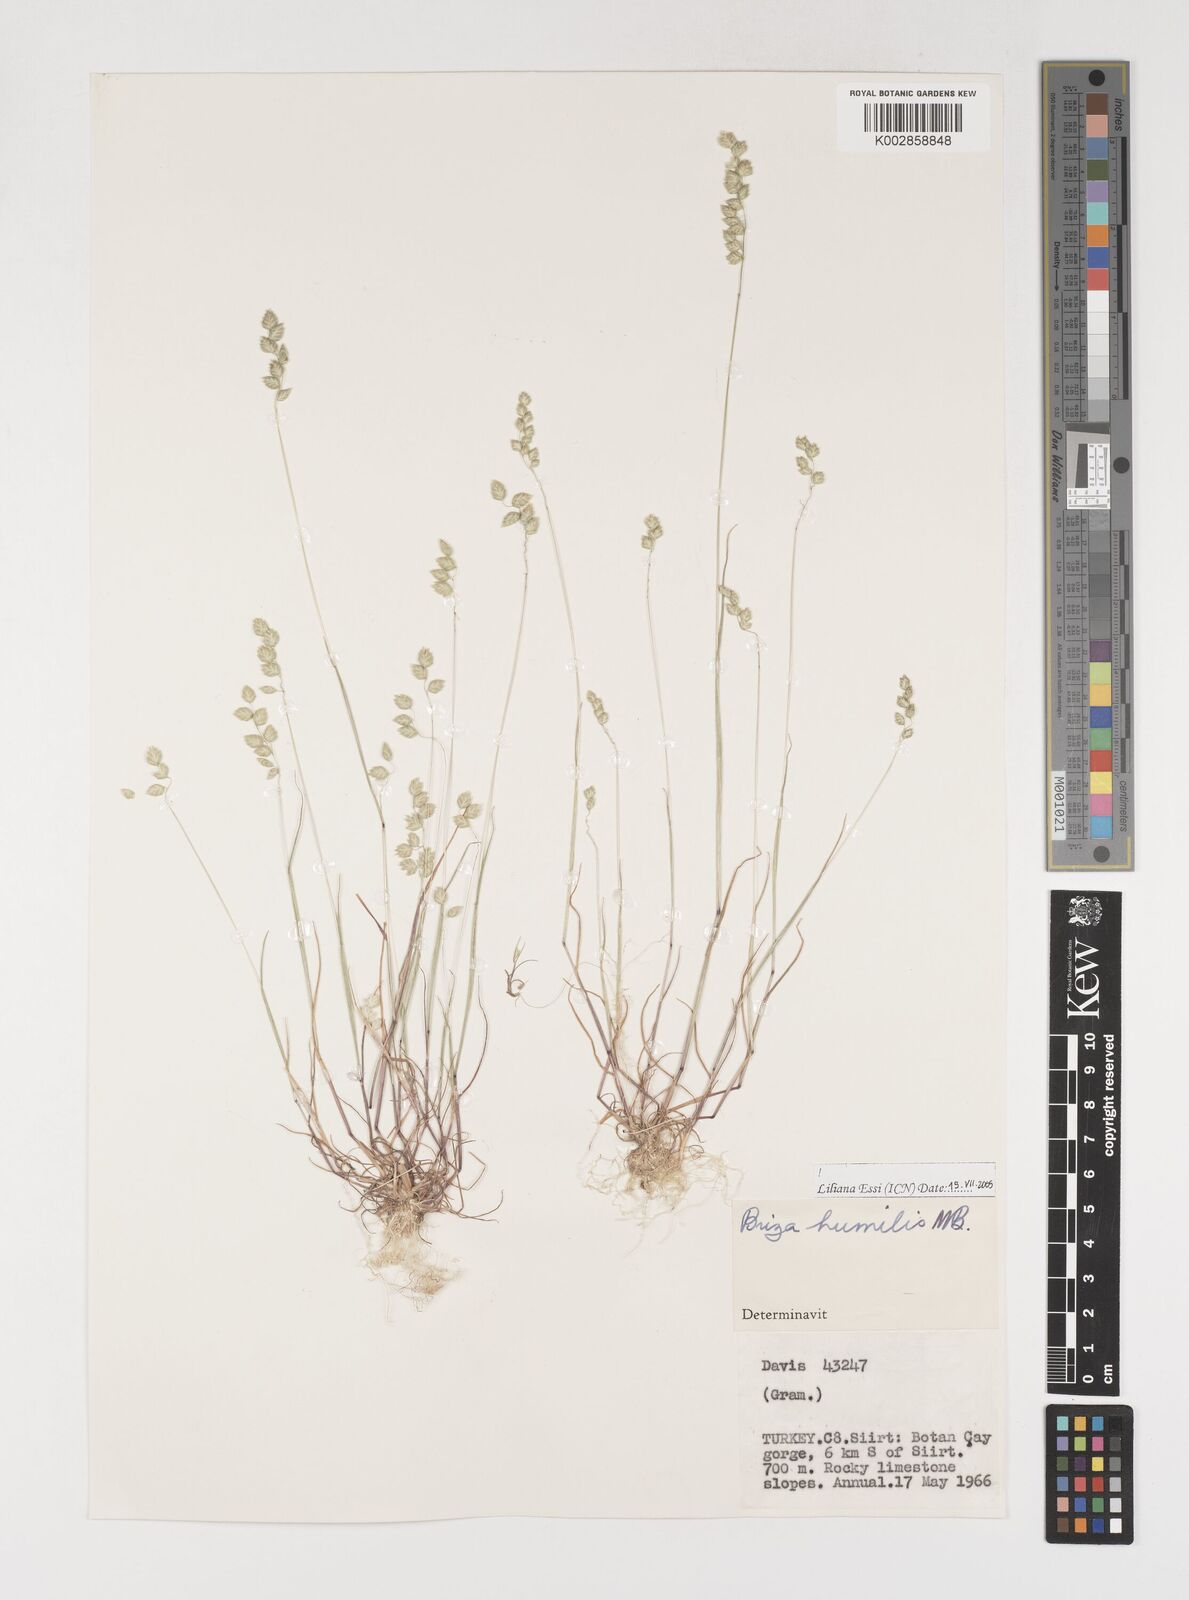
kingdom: Plantae
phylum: Tracheophyta
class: Liliopsida
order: Poales
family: Poaceae
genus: Briza
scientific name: Briza humilis
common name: Spiked quaking grass
